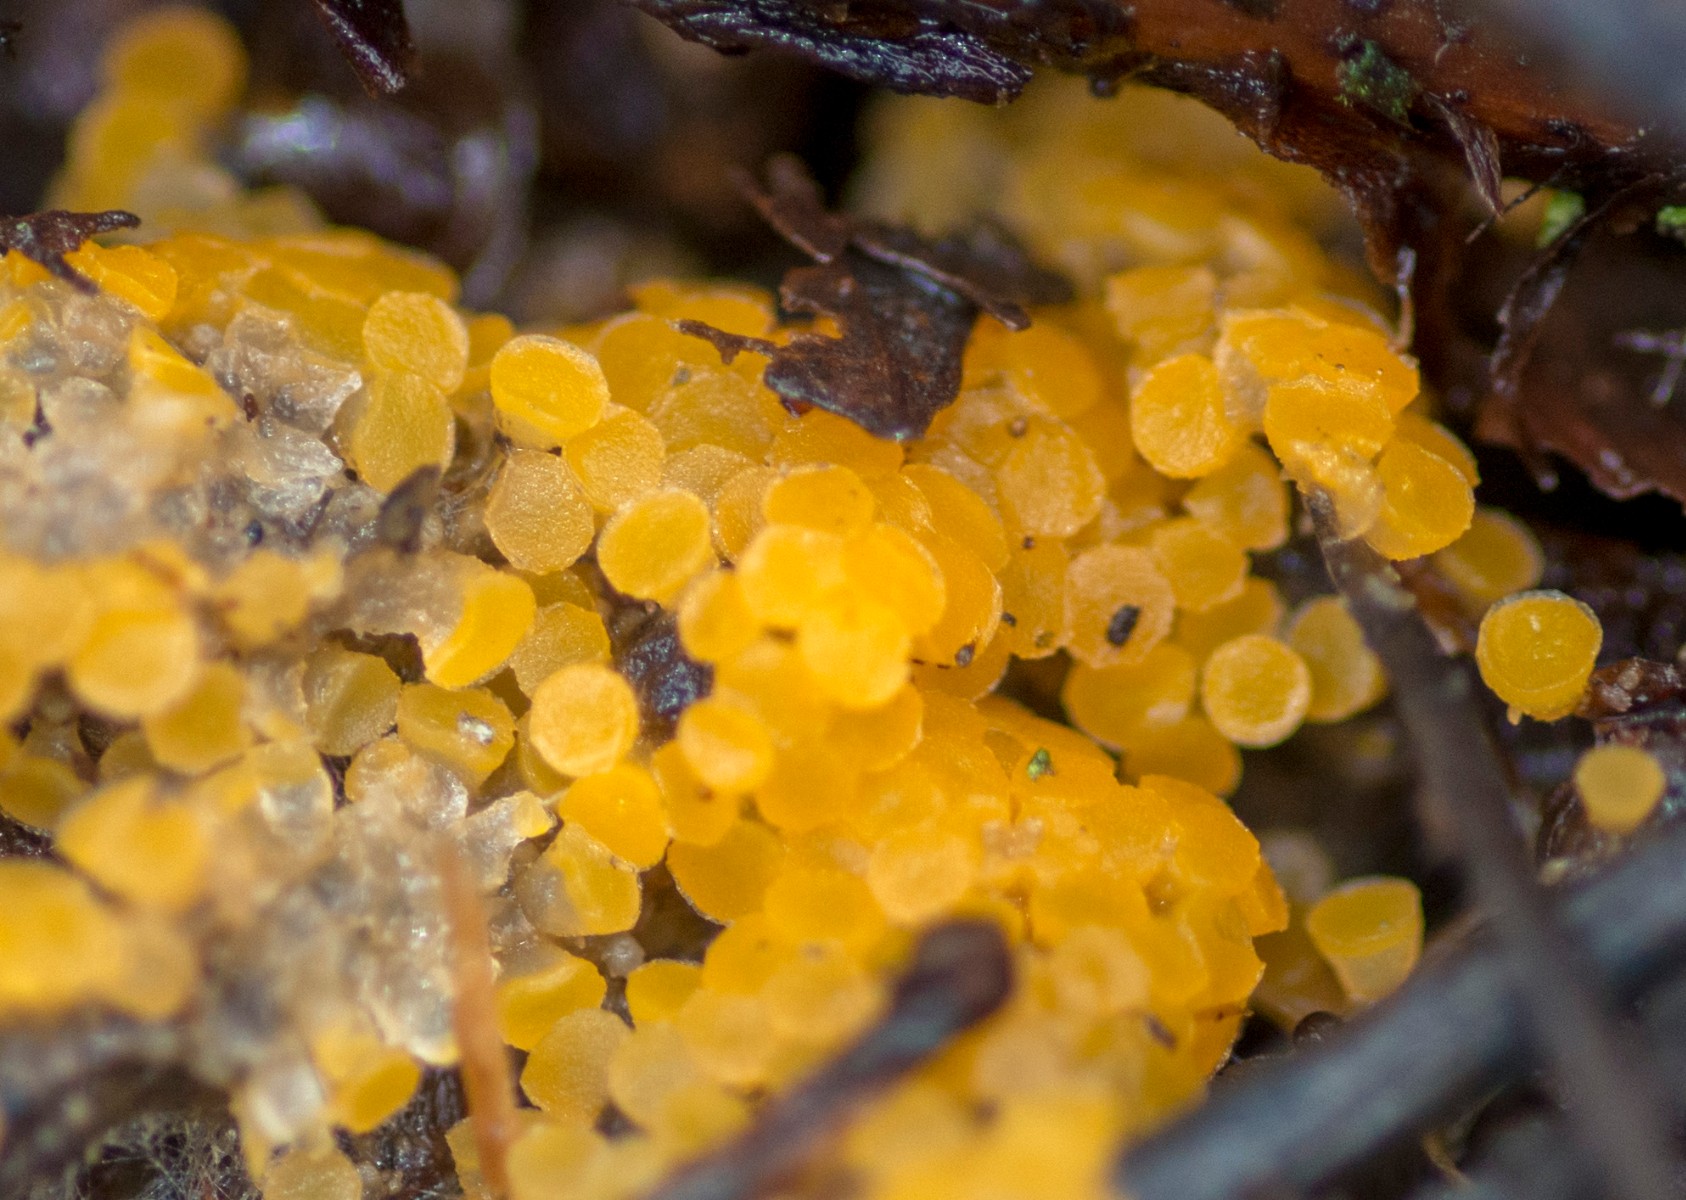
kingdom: Fungi
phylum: Ascomycota
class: Pezizomycetes
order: Pezizales
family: Pyronemataceae
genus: Byssonectria
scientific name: Byssonectria terrestris
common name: hjortebæger
